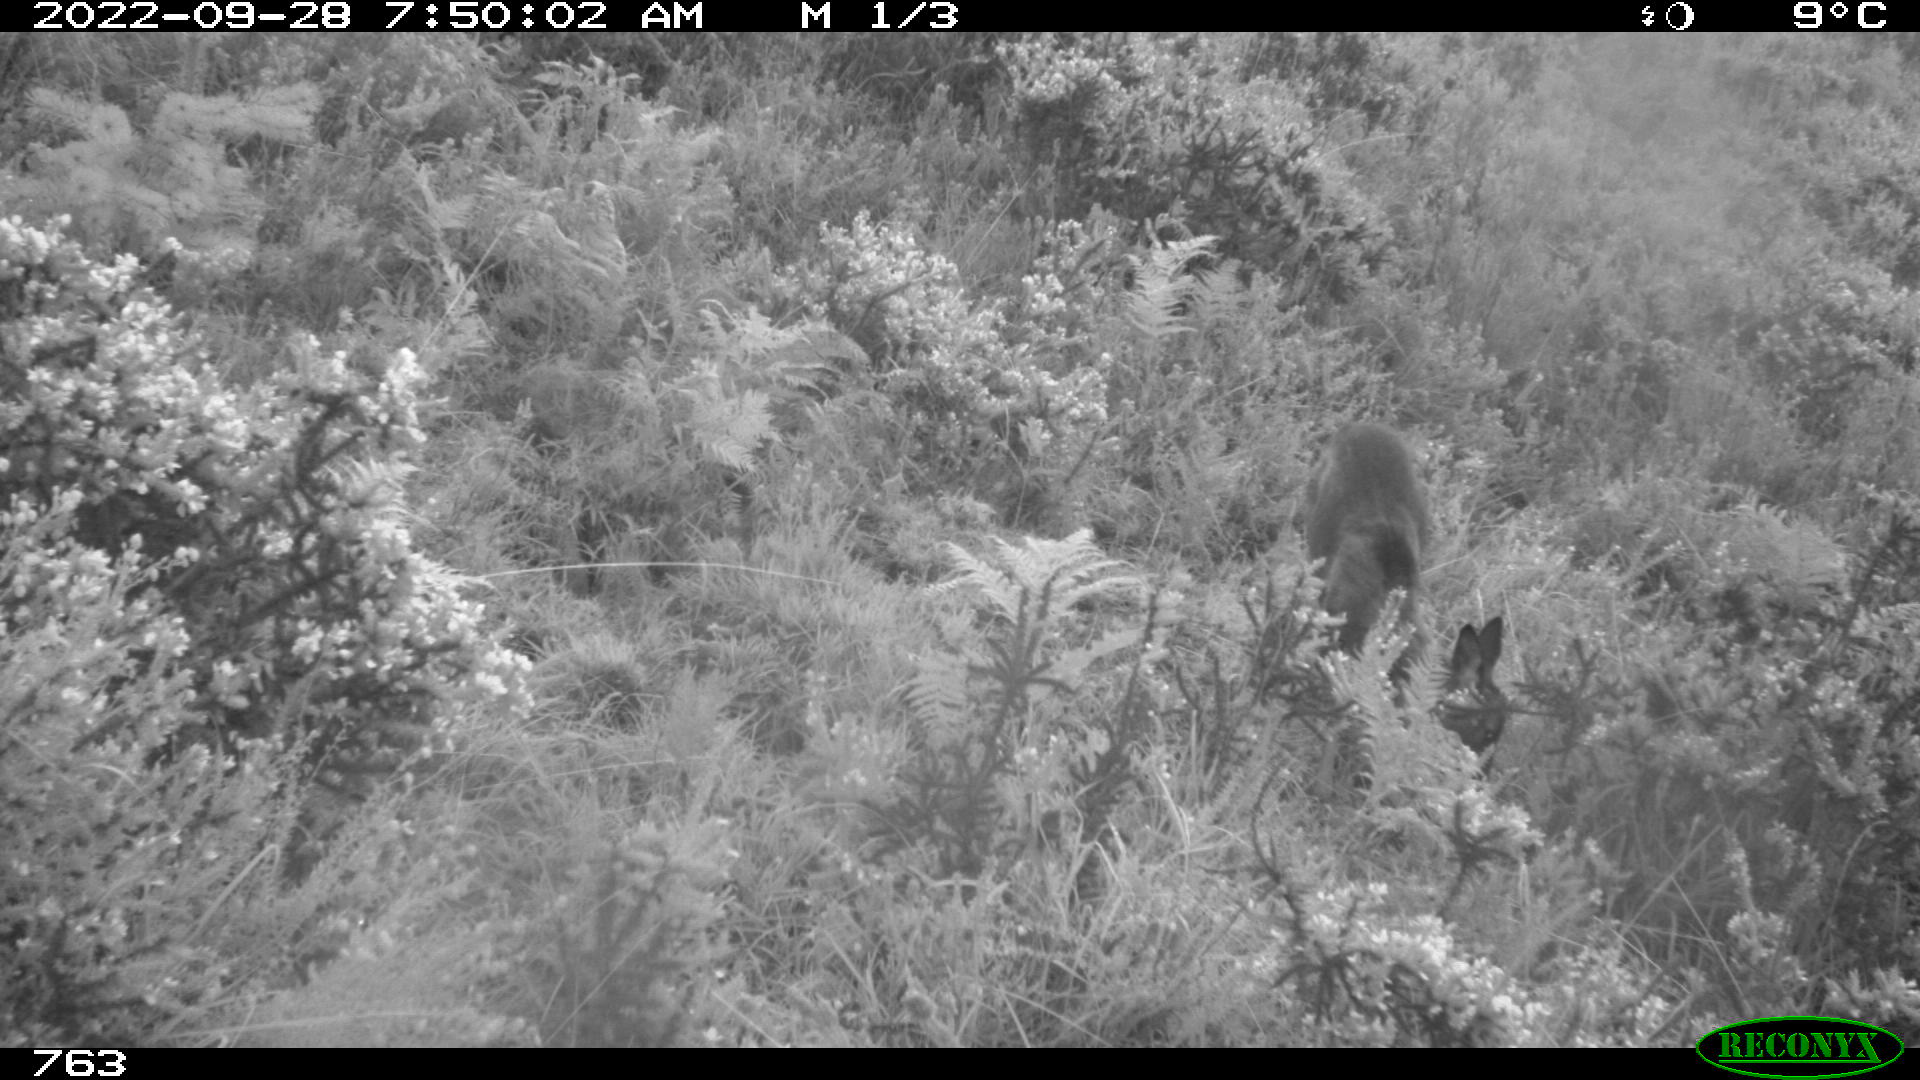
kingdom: Animalia
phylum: Chordata
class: Mammalia
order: Artiodactyla
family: Cervidae
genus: Capreolus
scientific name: Capreolus capreolus
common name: Western roe deer
